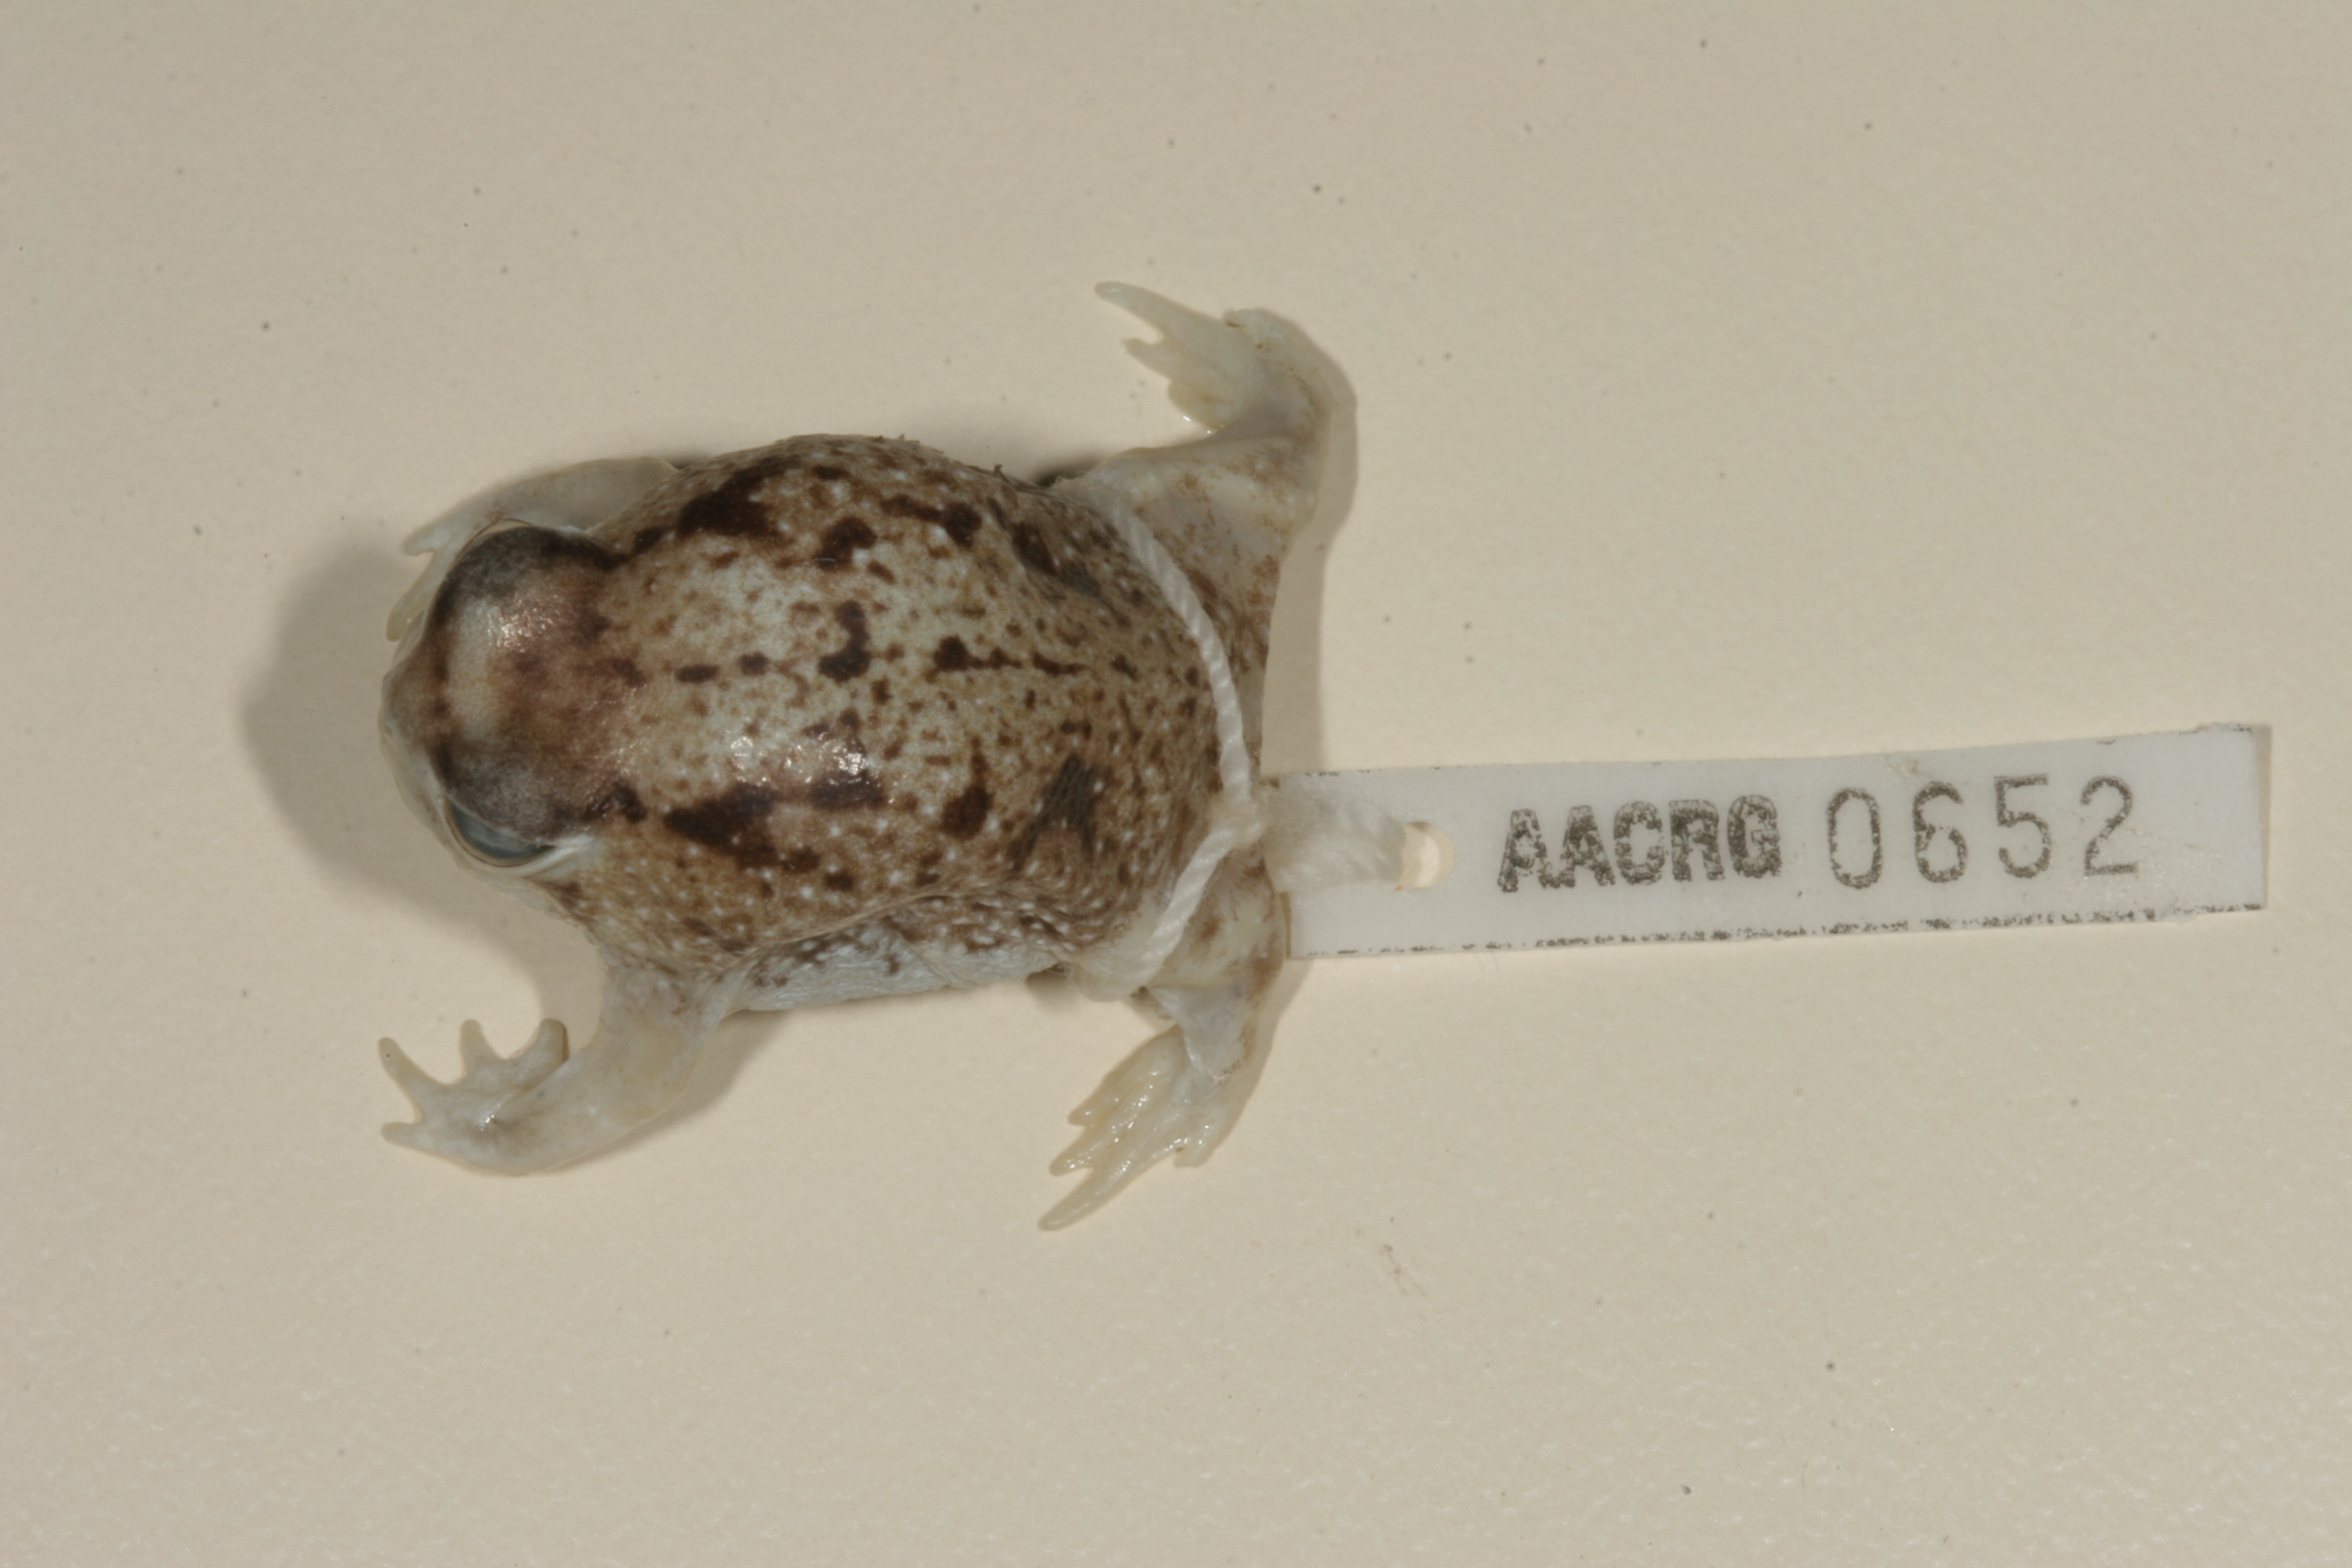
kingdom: Animalia
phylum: Chordata
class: Amphibia
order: Anura
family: Brevicipitidae
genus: Breviceps
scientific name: Breviceps macrops
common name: Melkpadda
